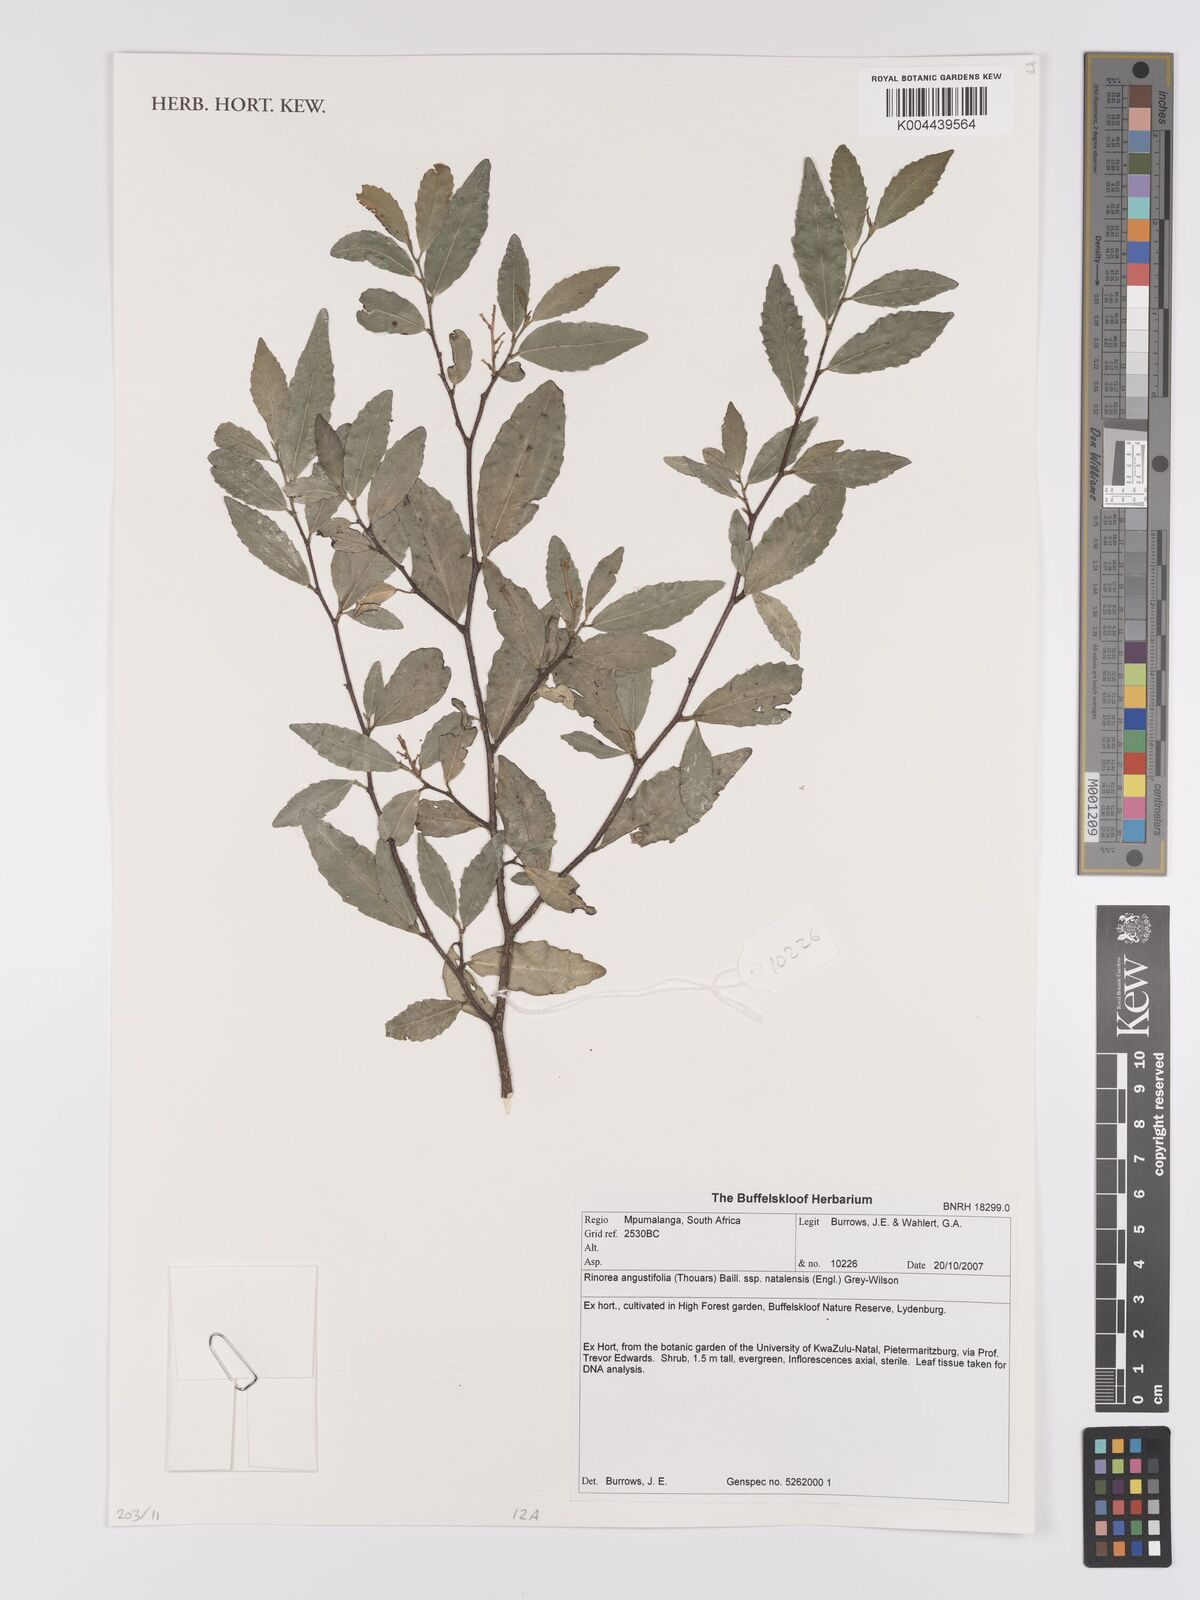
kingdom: Plantae
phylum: Tracheophyta
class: Magnoliopsida
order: Malpighiales
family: Violaceae
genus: Rinorea
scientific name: Rinorea angustifolia
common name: White violet-bush
